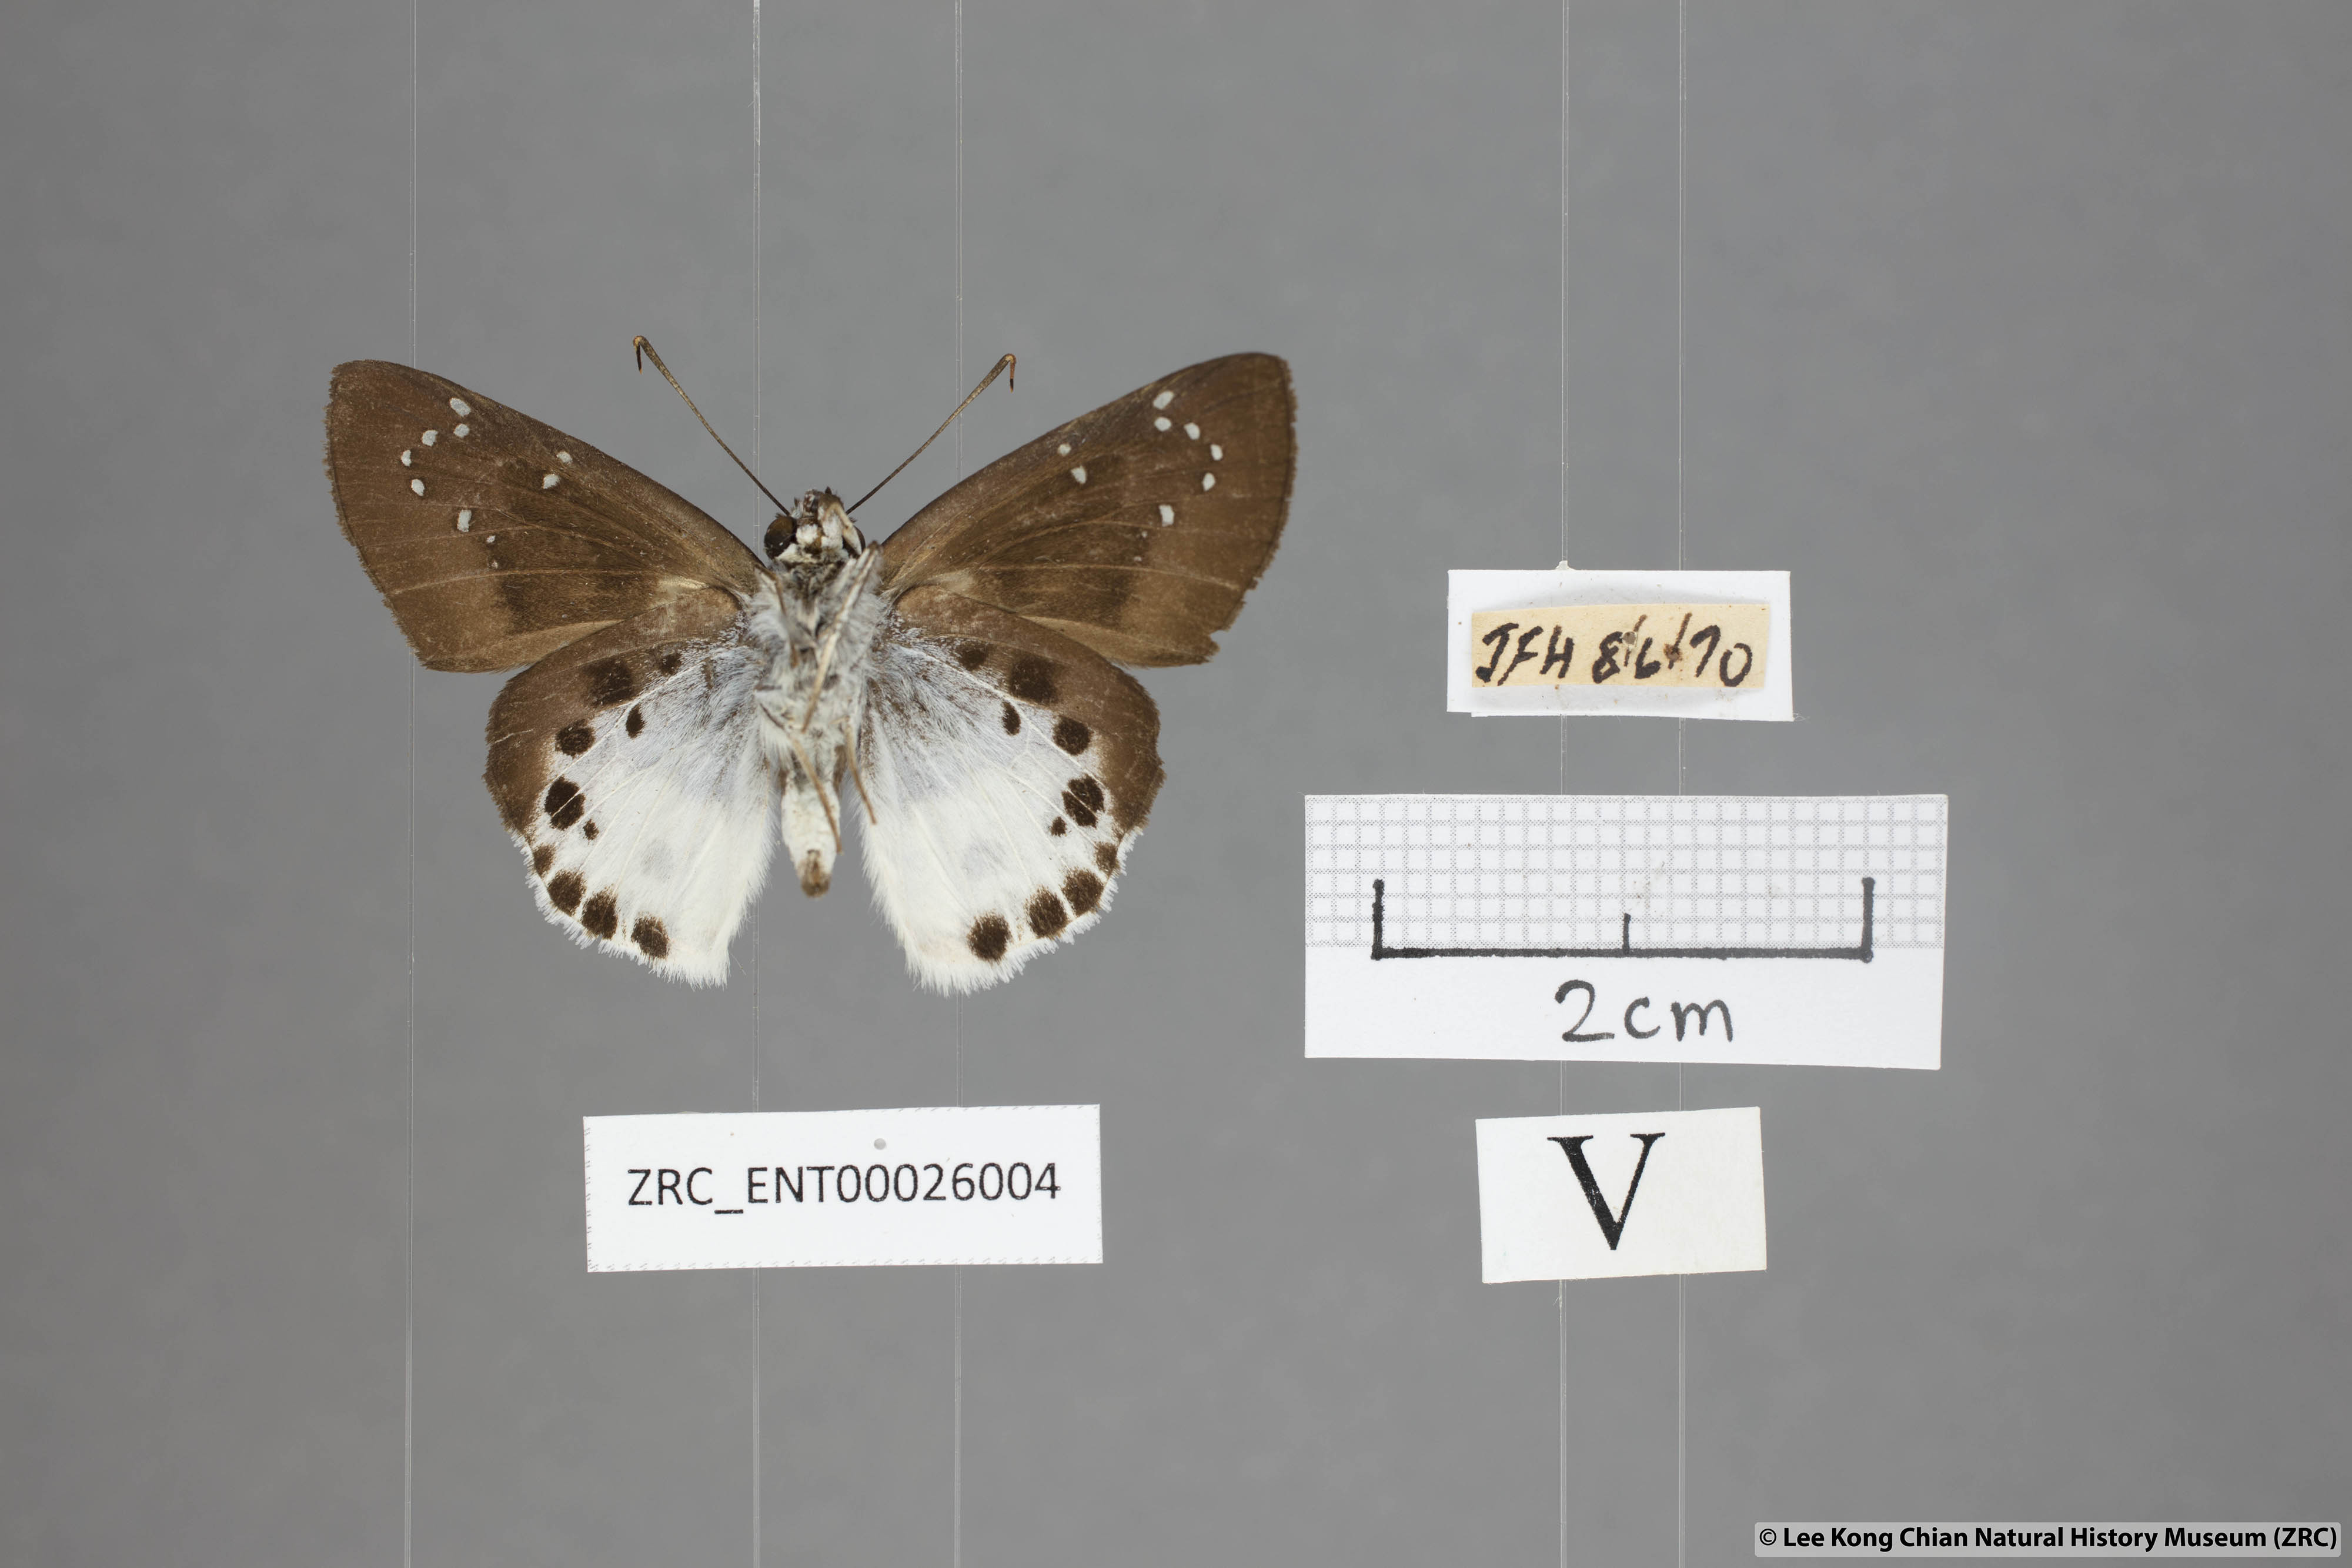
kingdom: Animalia
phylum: Arthropoda
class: Insecta
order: Lepidoptera
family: Hesperiidae
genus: Tagiades
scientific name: Tagiades menaka
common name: Dark-edged snow flat
